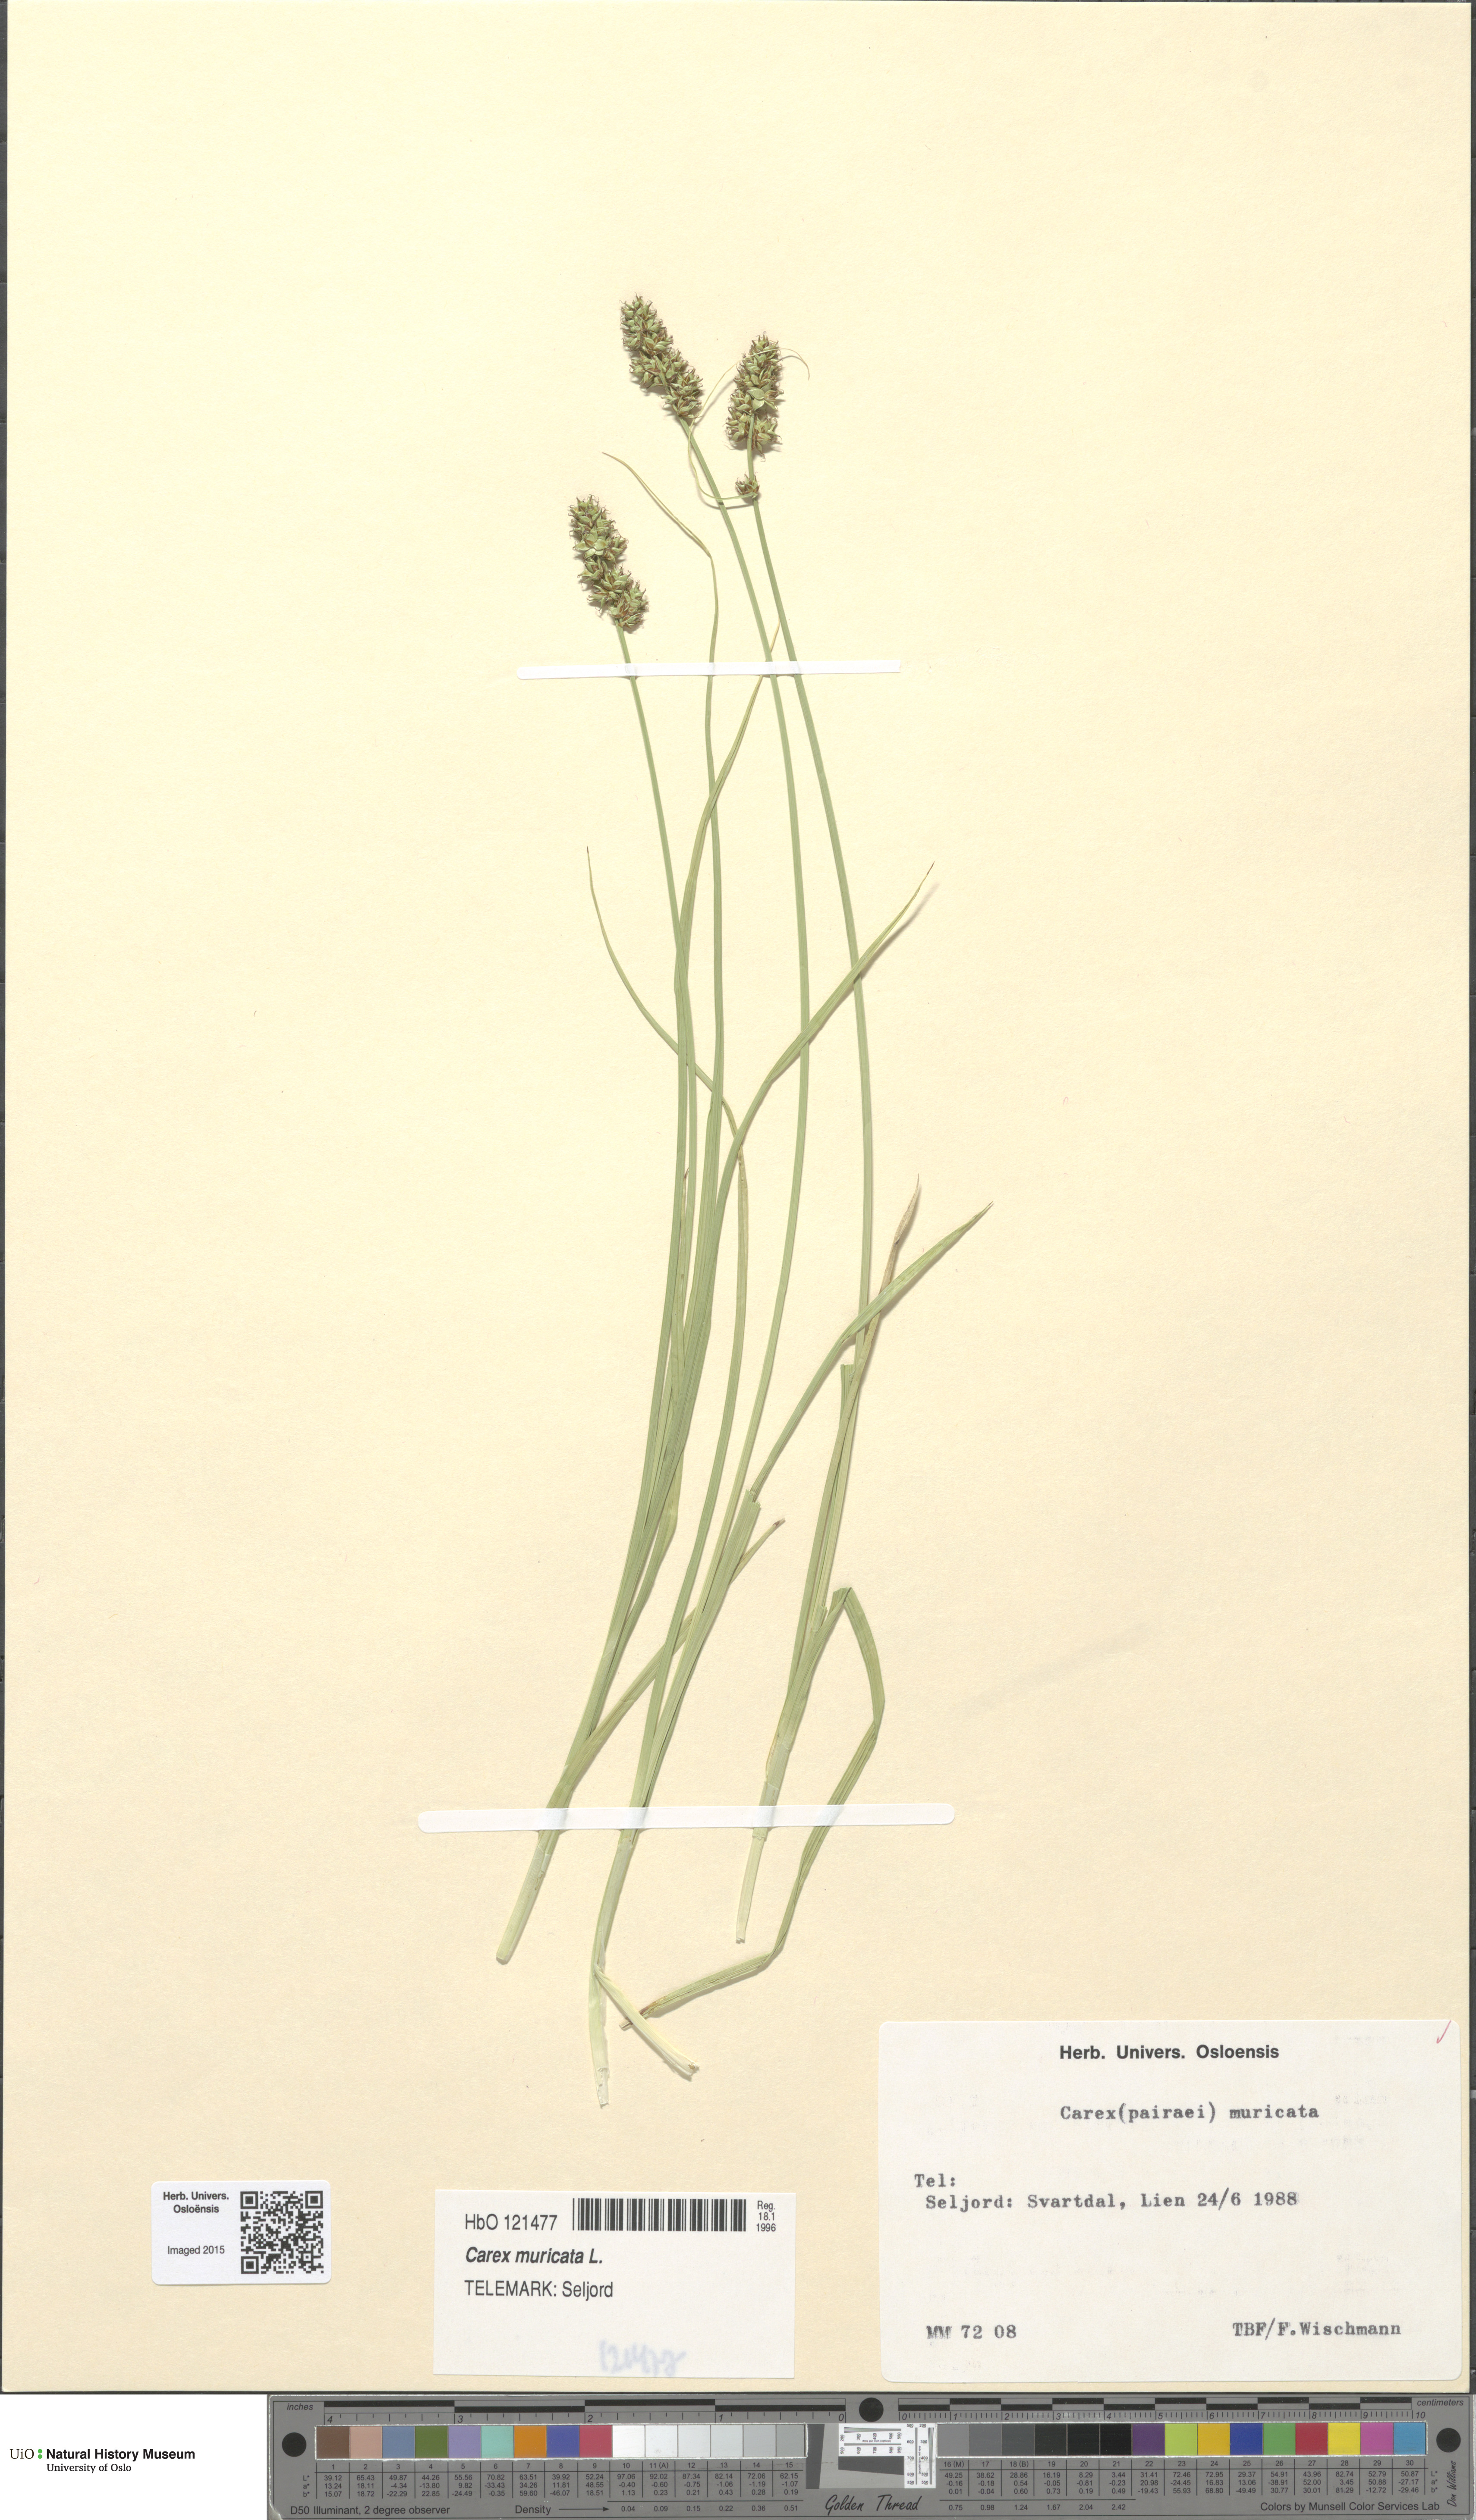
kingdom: Plantae
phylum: Tracheophyta
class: Liliopsida
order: Poales
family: Cyperaceae
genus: Carex
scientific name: Carex muricata
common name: Rough sedge
